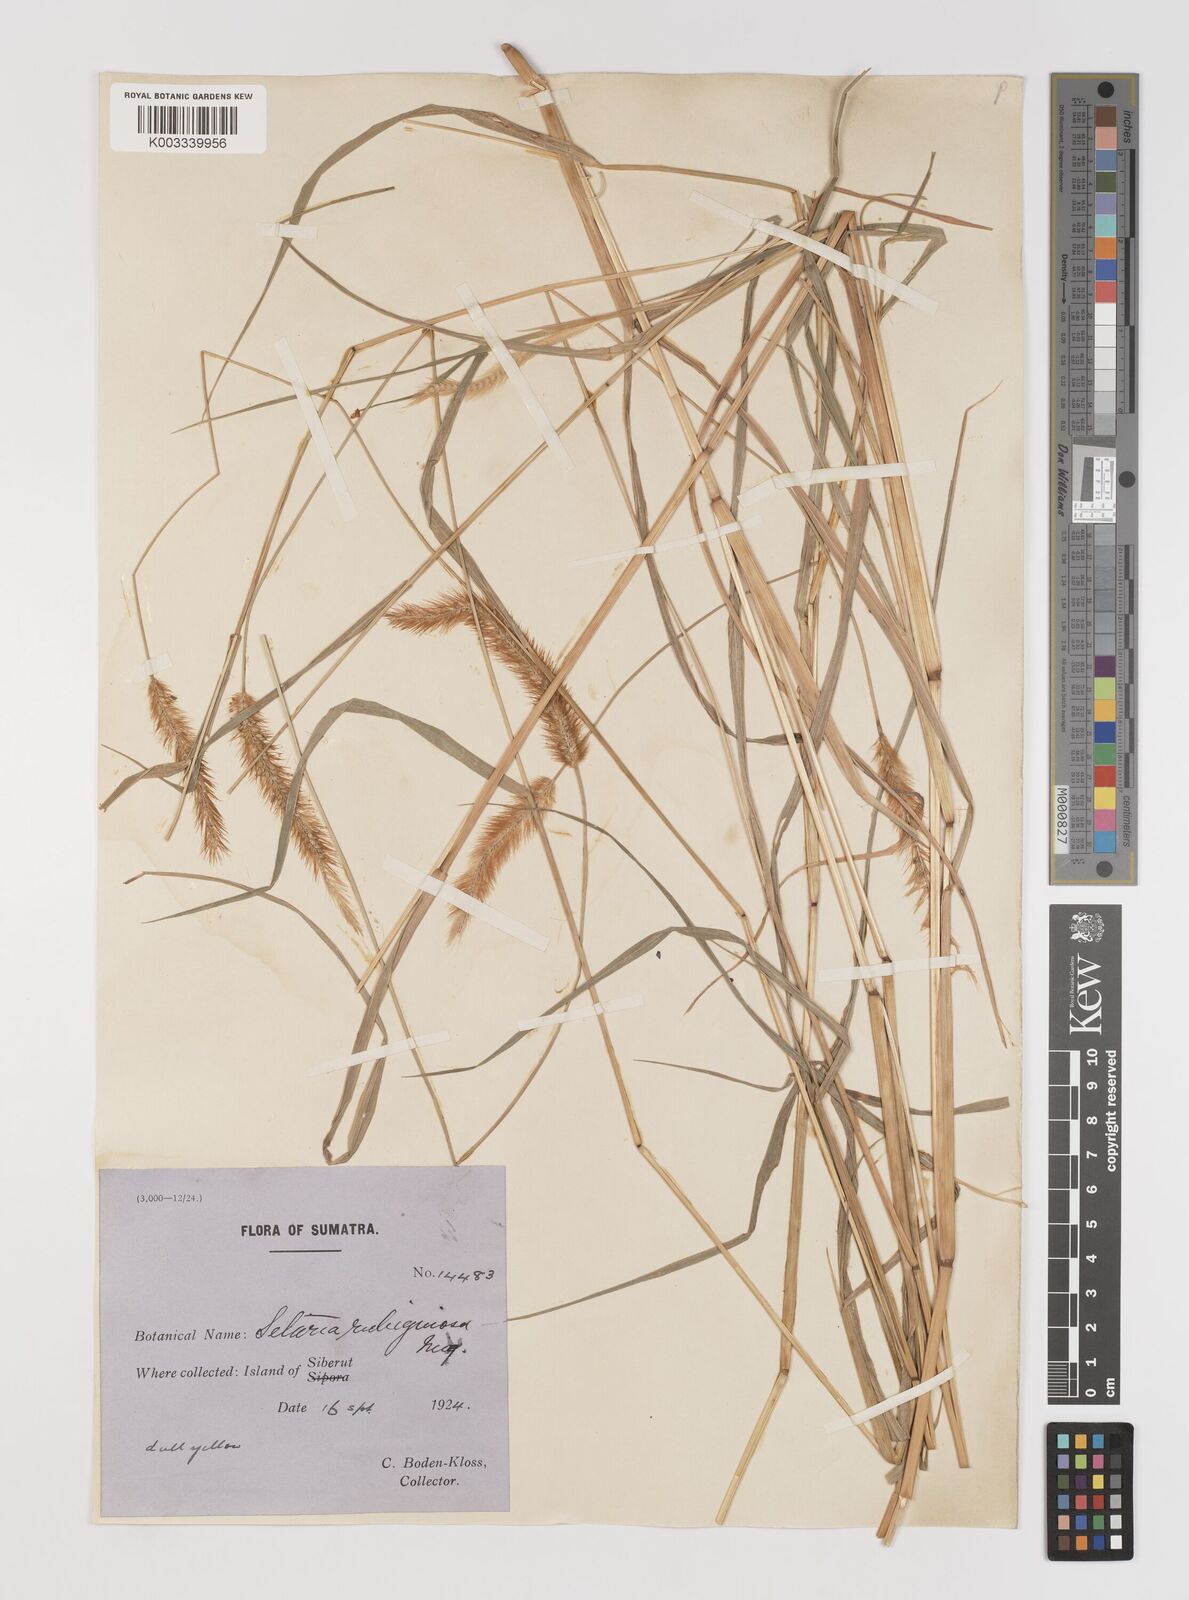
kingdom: Plantae
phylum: Tracheophyta
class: Liliopsida
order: Poales
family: Poaceae
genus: Setaria
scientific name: Setaria parviflora
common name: Knotroot bristle-grass
